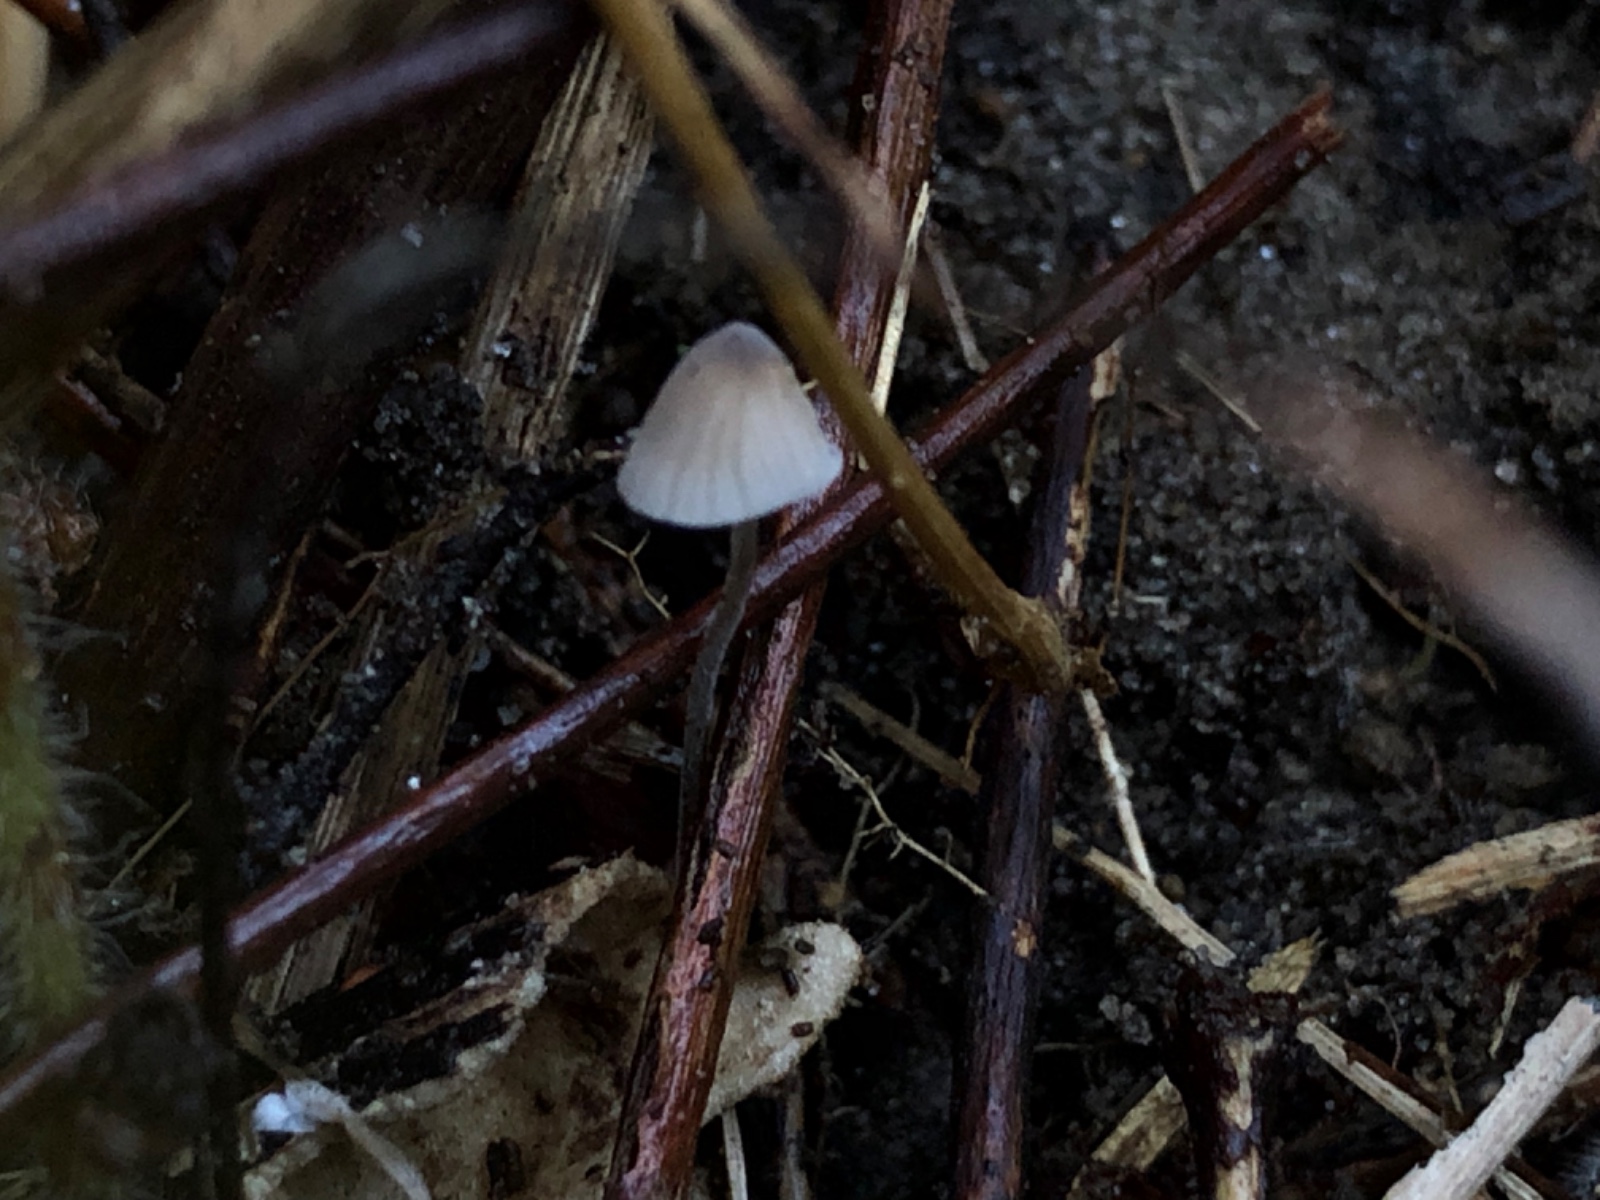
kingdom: Fungi
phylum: Basidiomycota
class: Agaricomycetes
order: Agaricales
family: Tricholomataceae
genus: Mycenella
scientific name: Mycenella lasiosperma
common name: stjernesporet dughat
